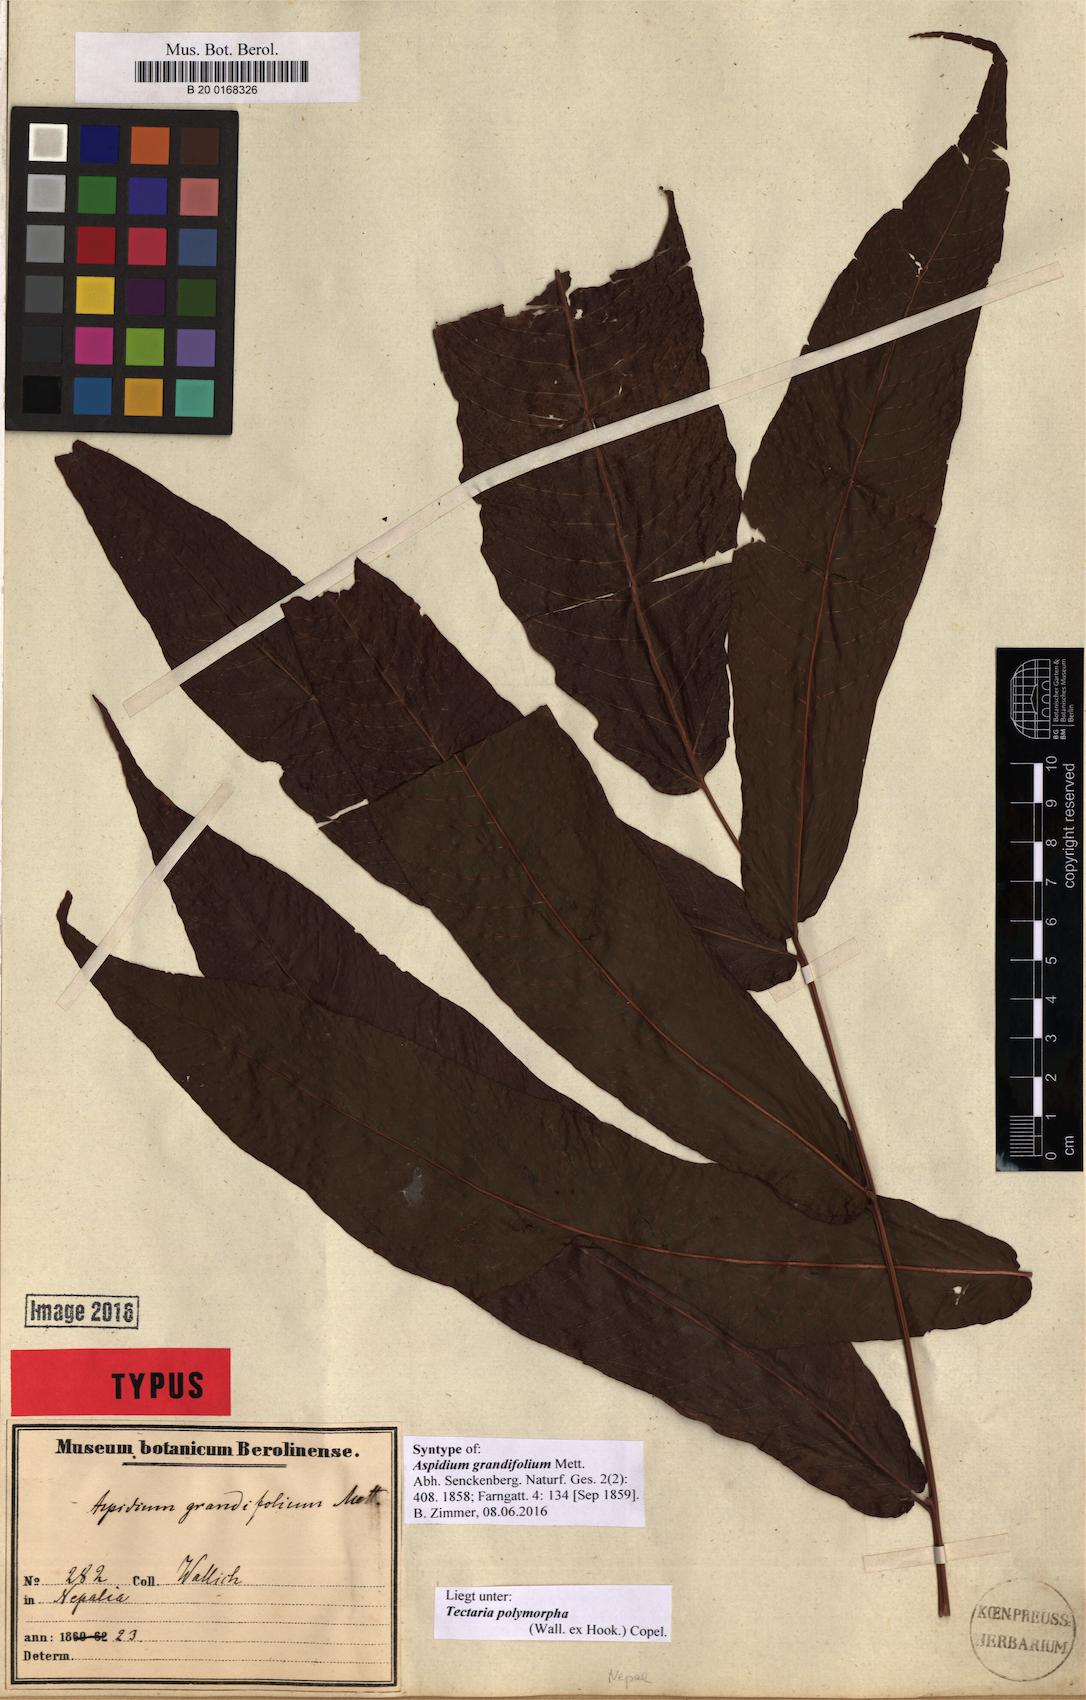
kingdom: Plantae
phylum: Tracheophyta
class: Polypodiopsida
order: Polypodiales
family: Tectariaceae
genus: Tectaria
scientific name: Tectaria polymorpha
